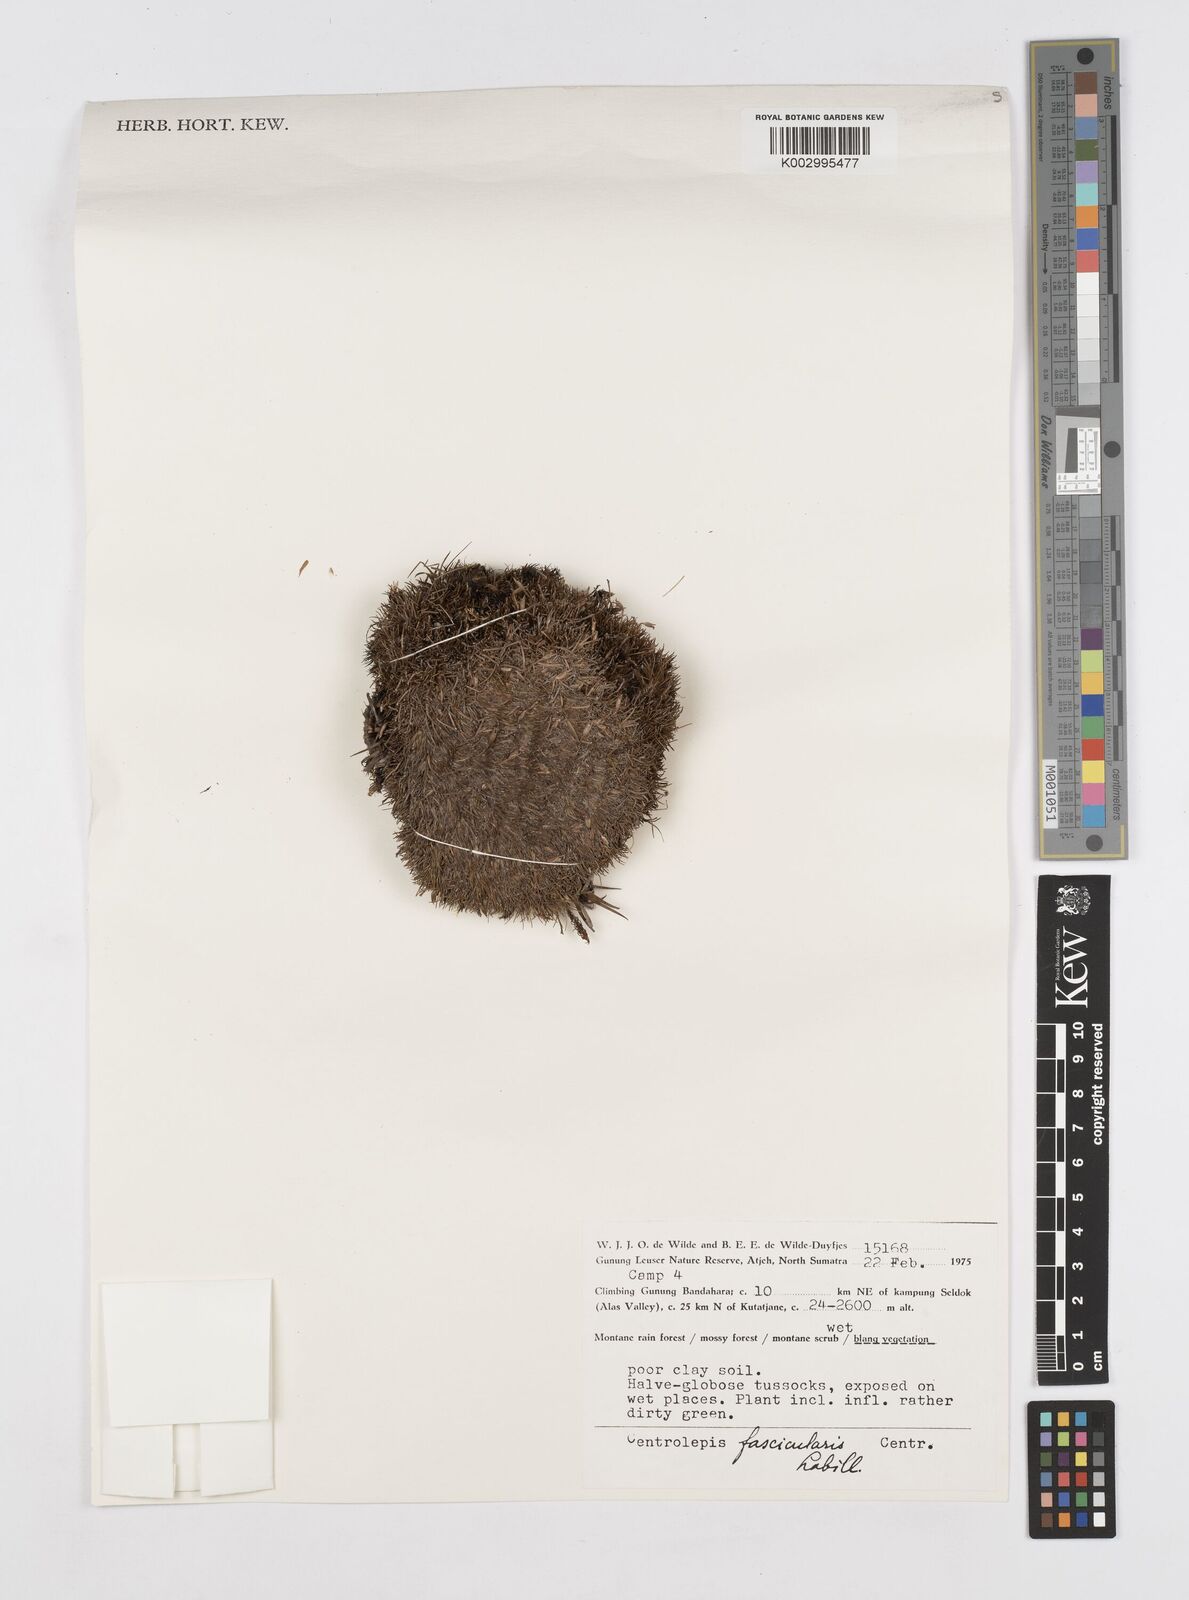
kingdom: Plantae
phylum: Tracheophyta
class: Liliopsida
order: Poales
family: Restionaceae
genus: Centrolepis
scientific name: Centrolepis fascicularis
